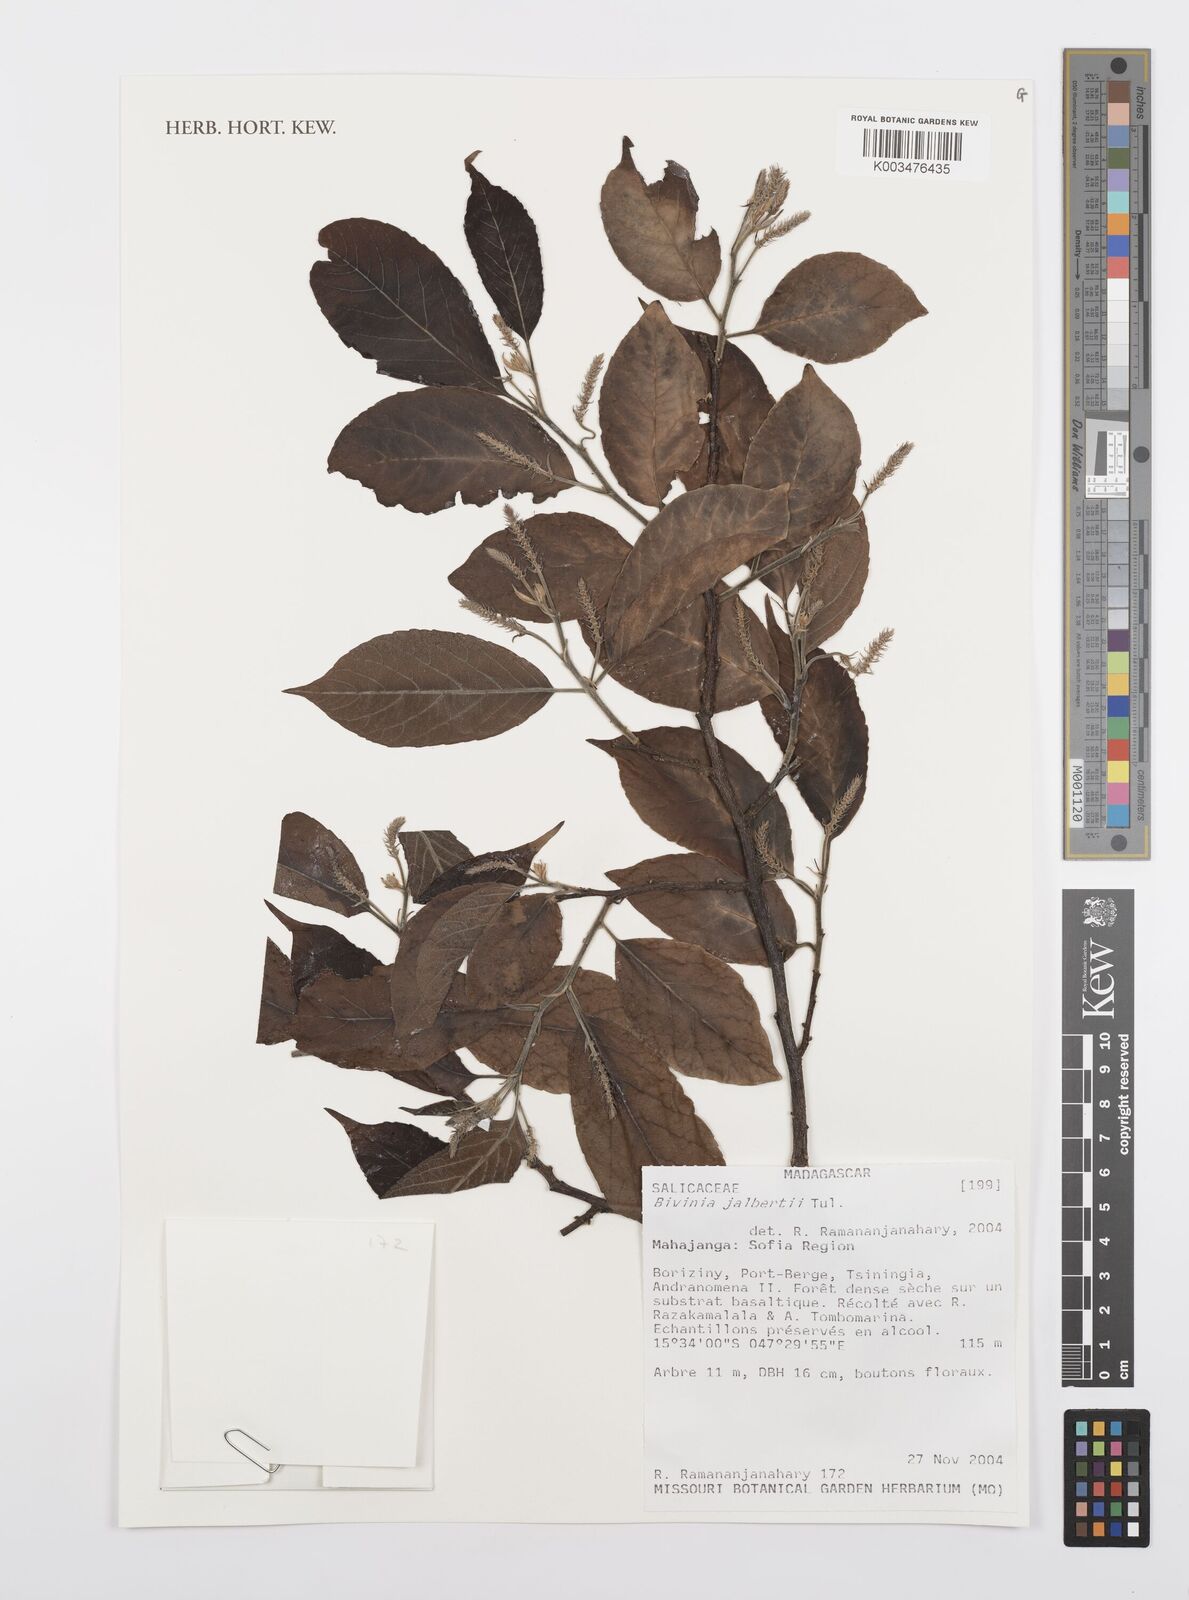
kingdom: Plantae
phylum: Tracheophyta
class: Magnoliopsida
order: Malpighiales
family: Salicaceae
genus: Bivinia
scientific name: Bivinia jalbertii
